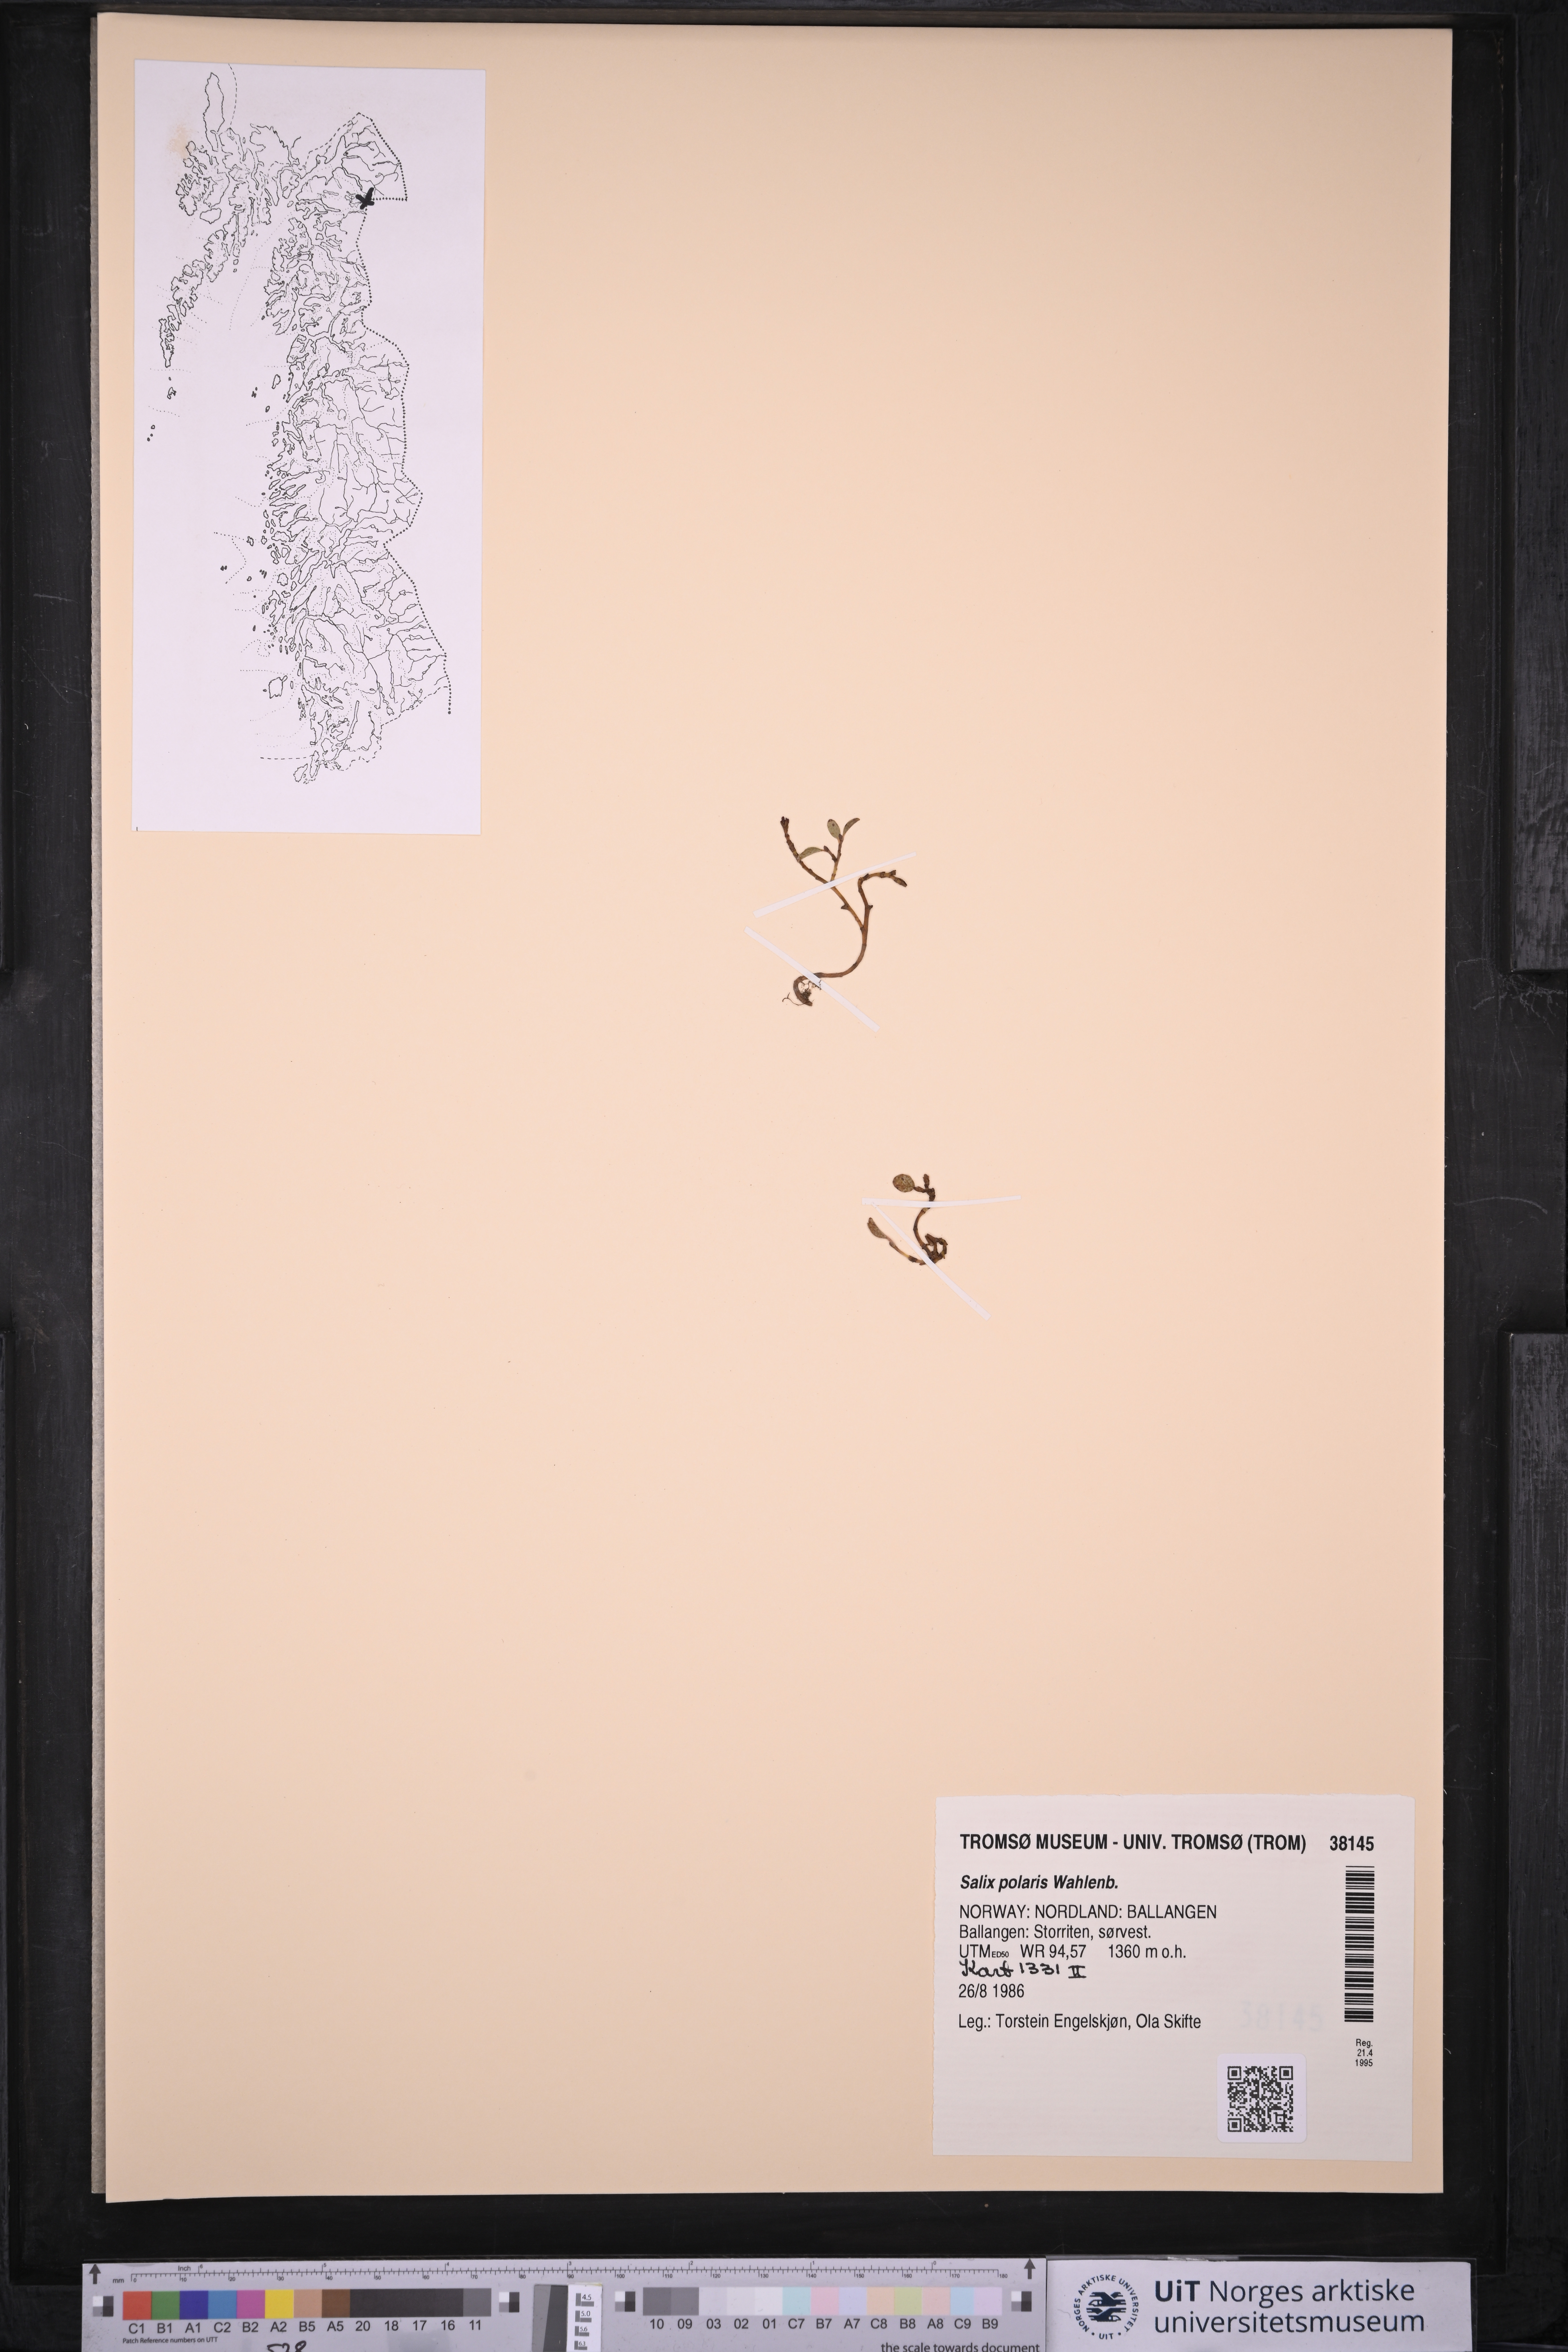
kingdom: Plantae
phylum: Tracheophyta
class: Magnoliopsida
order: Malpighiales
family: Salicaceae
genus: Salix
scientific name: Salix polaris
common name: Polar willow
